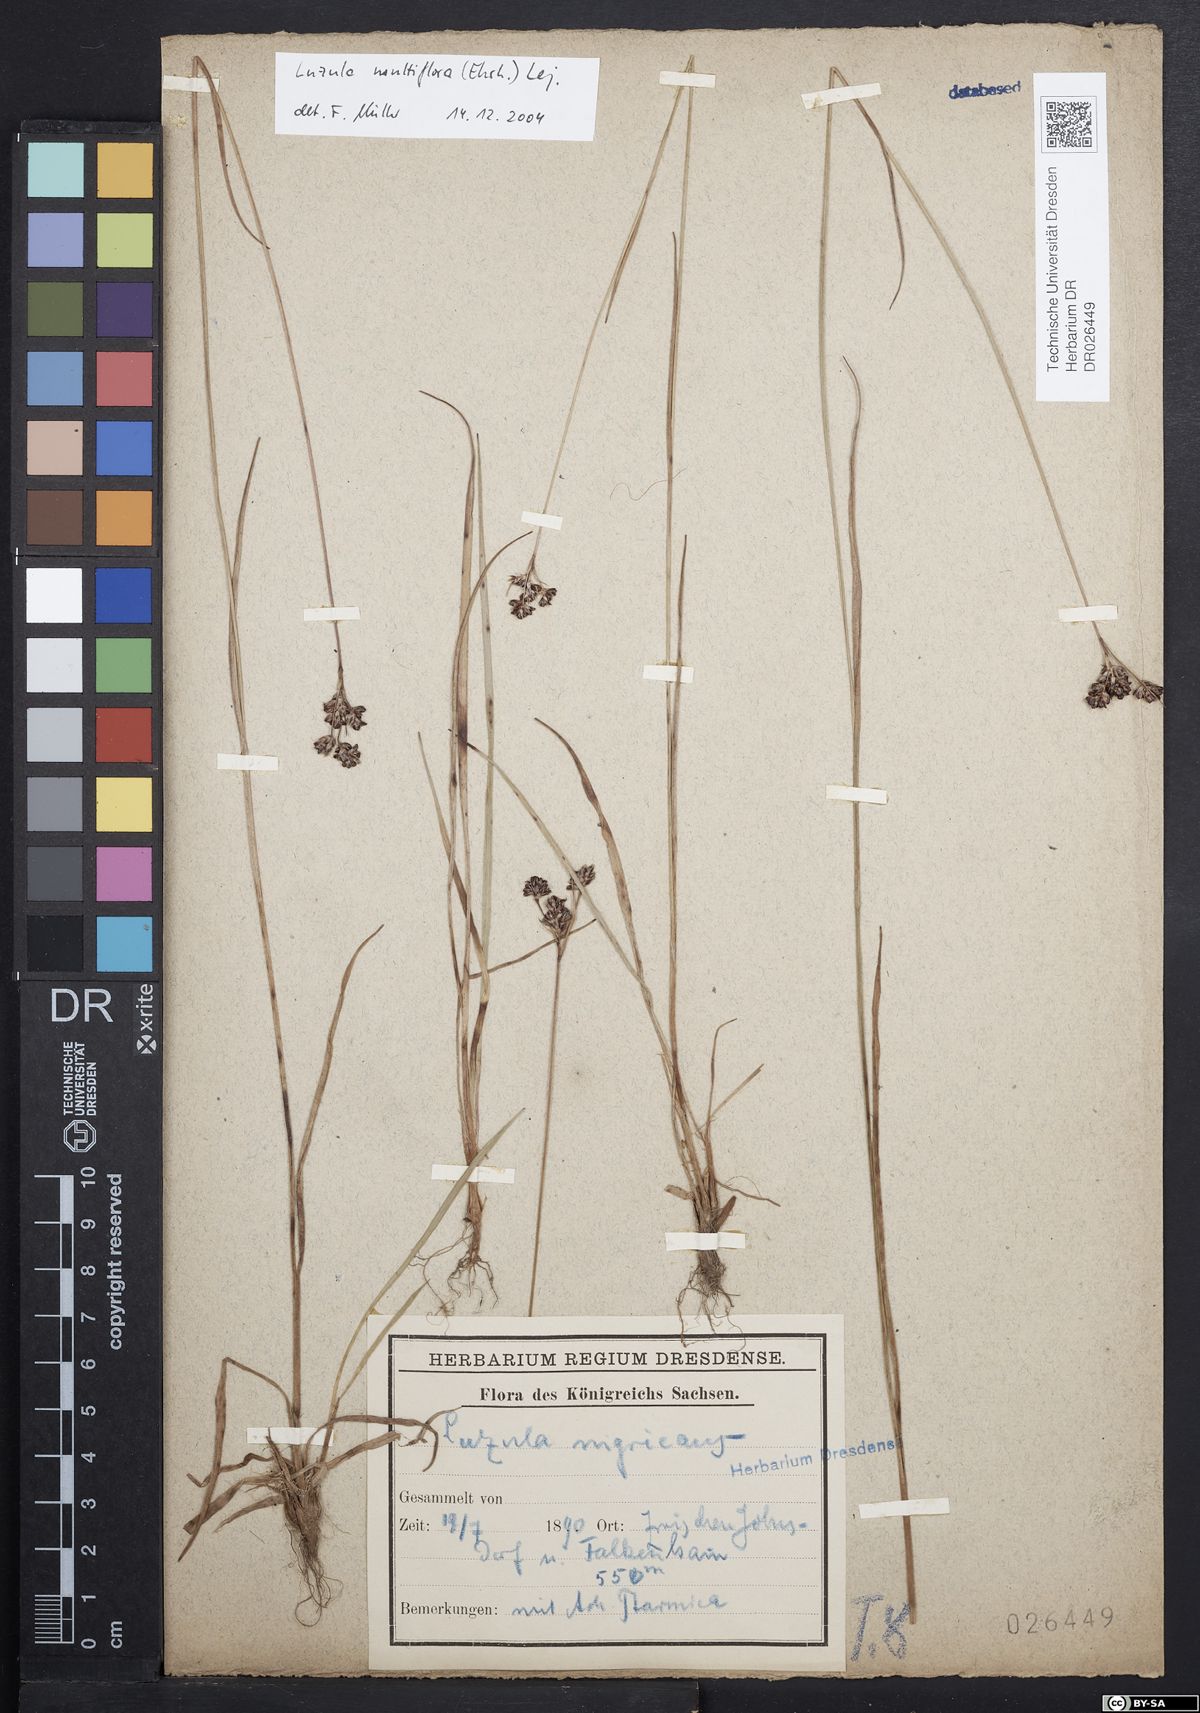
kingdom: Plantae
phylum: Tracheophyta
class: Liliopsida
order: Poales
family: Juncaceae
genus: Luzula
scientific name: Luzula multiflora
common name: Heath wood-rush
